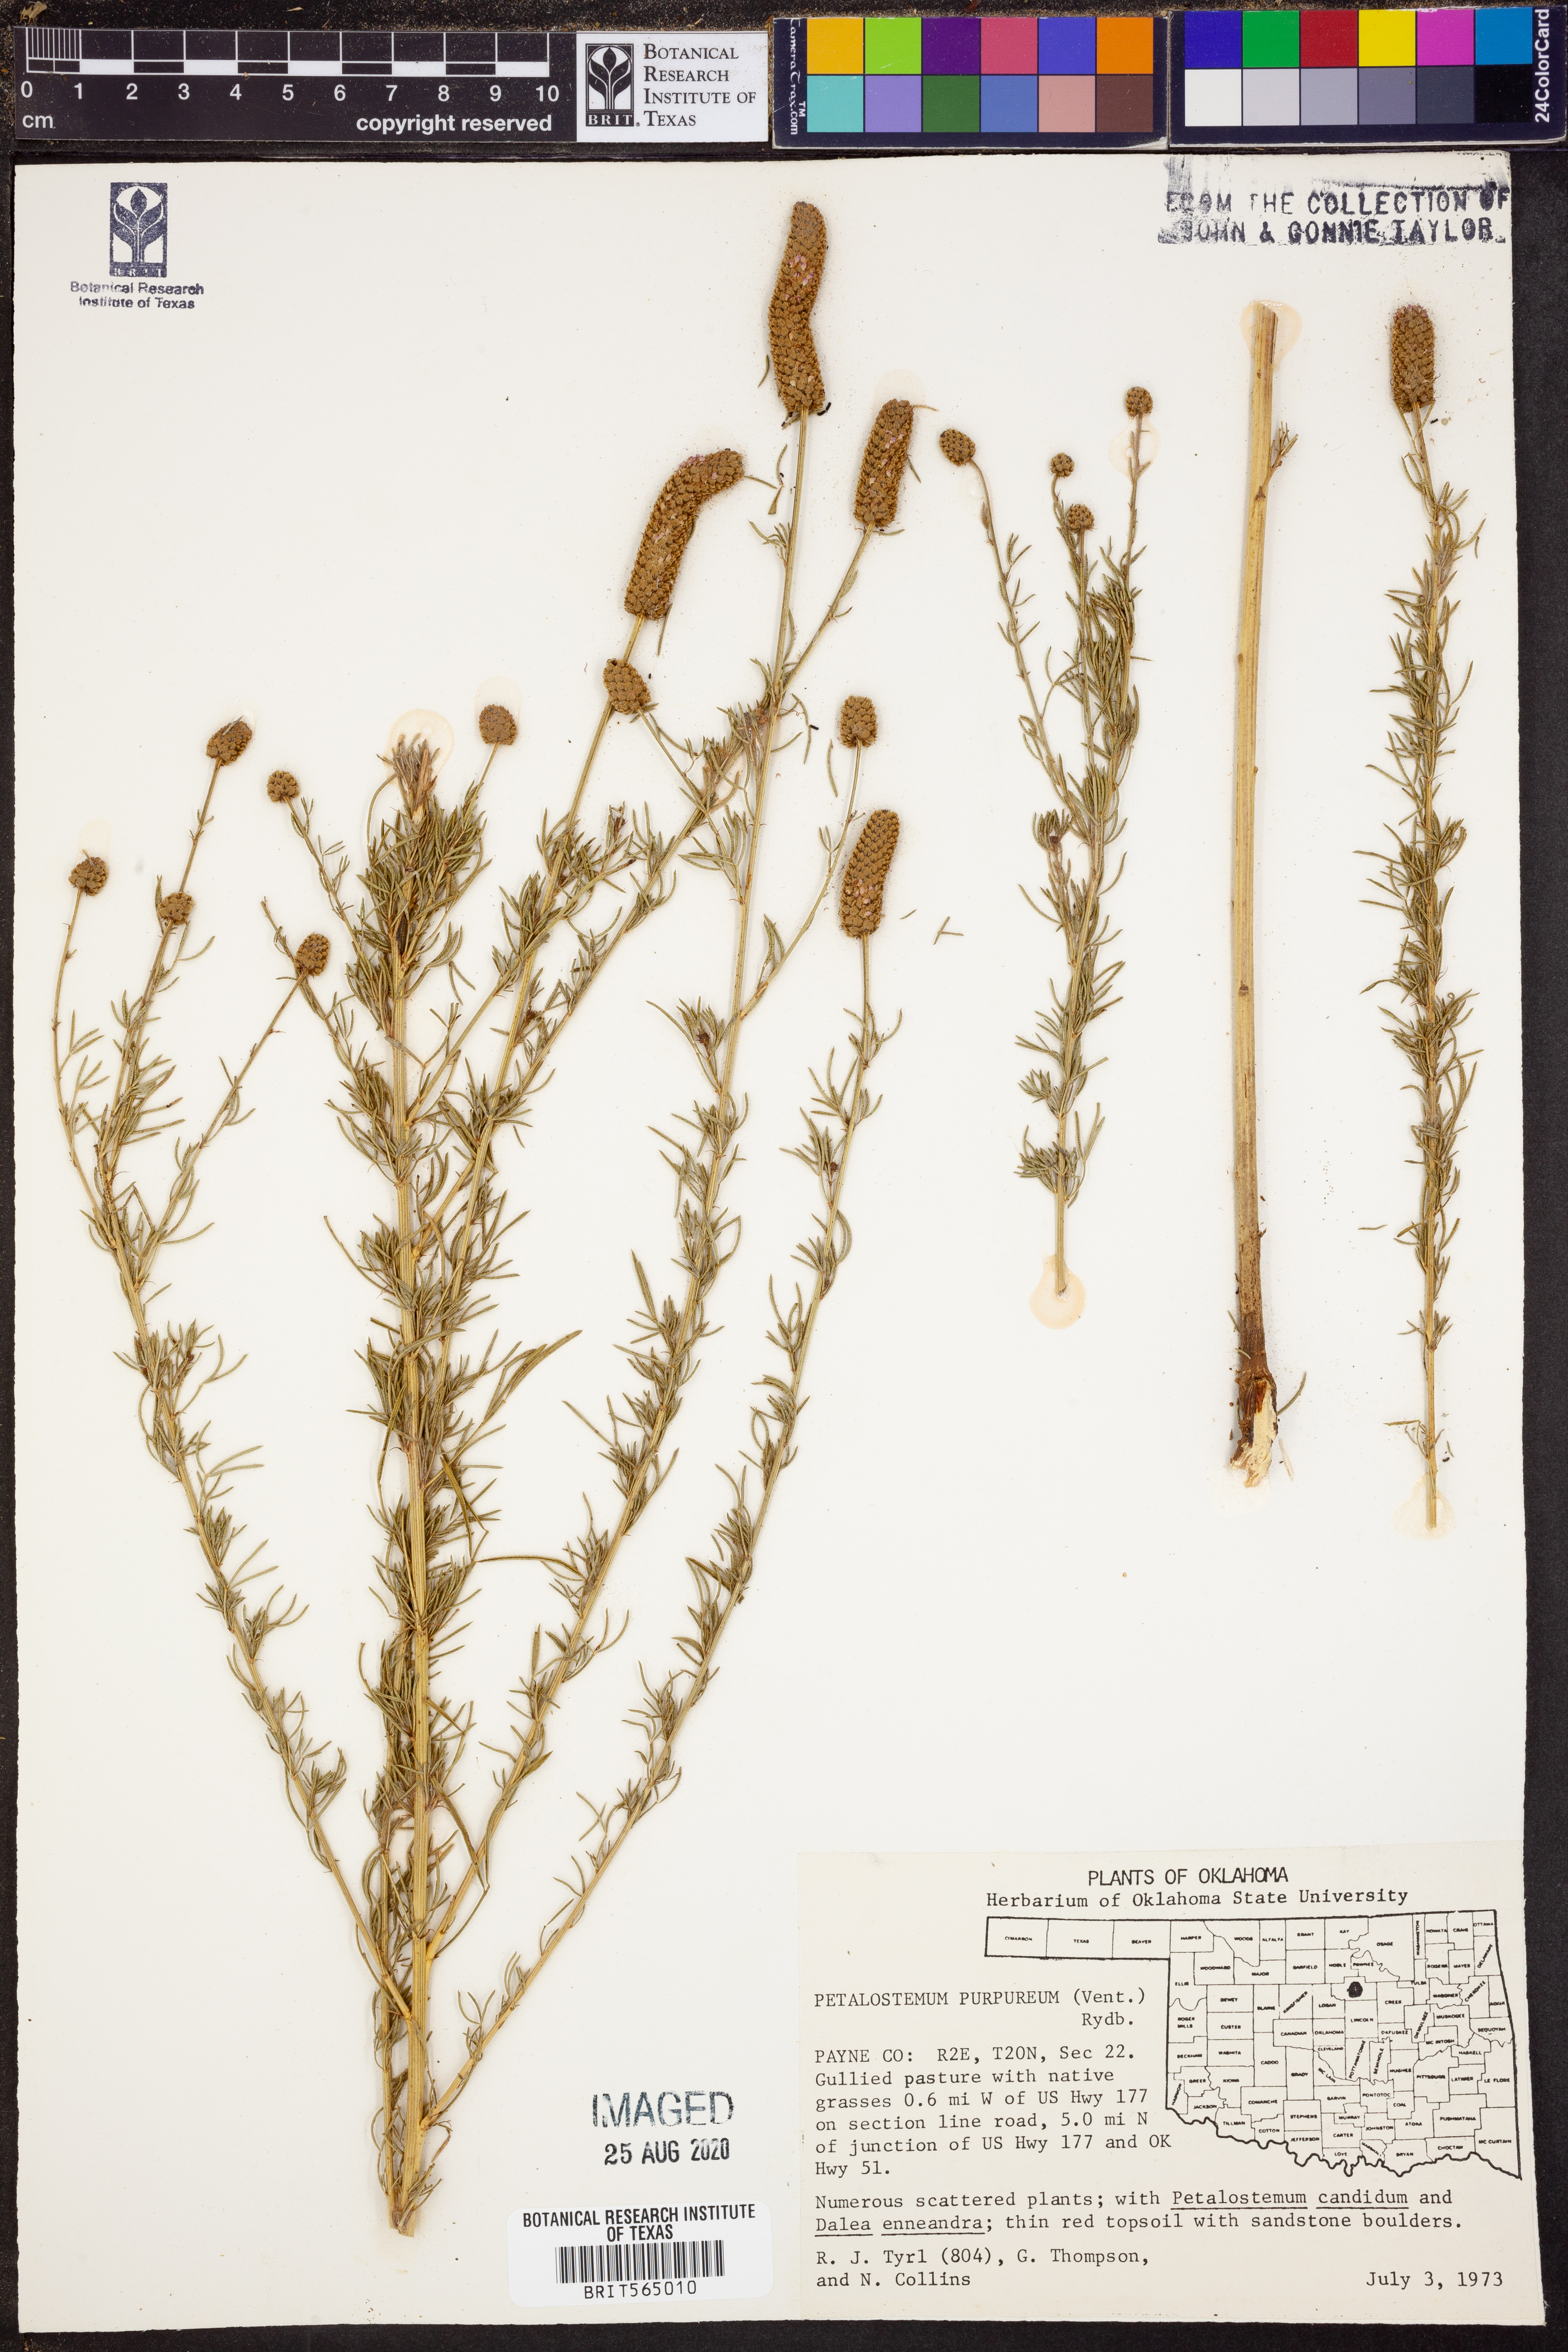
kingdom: Plantae
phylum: Tracheophyta
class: Magnoliopsida
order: Fabales
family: Fabaceae
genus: Dalea
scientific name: Dalea purpurea
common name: Purple prairie-clover
